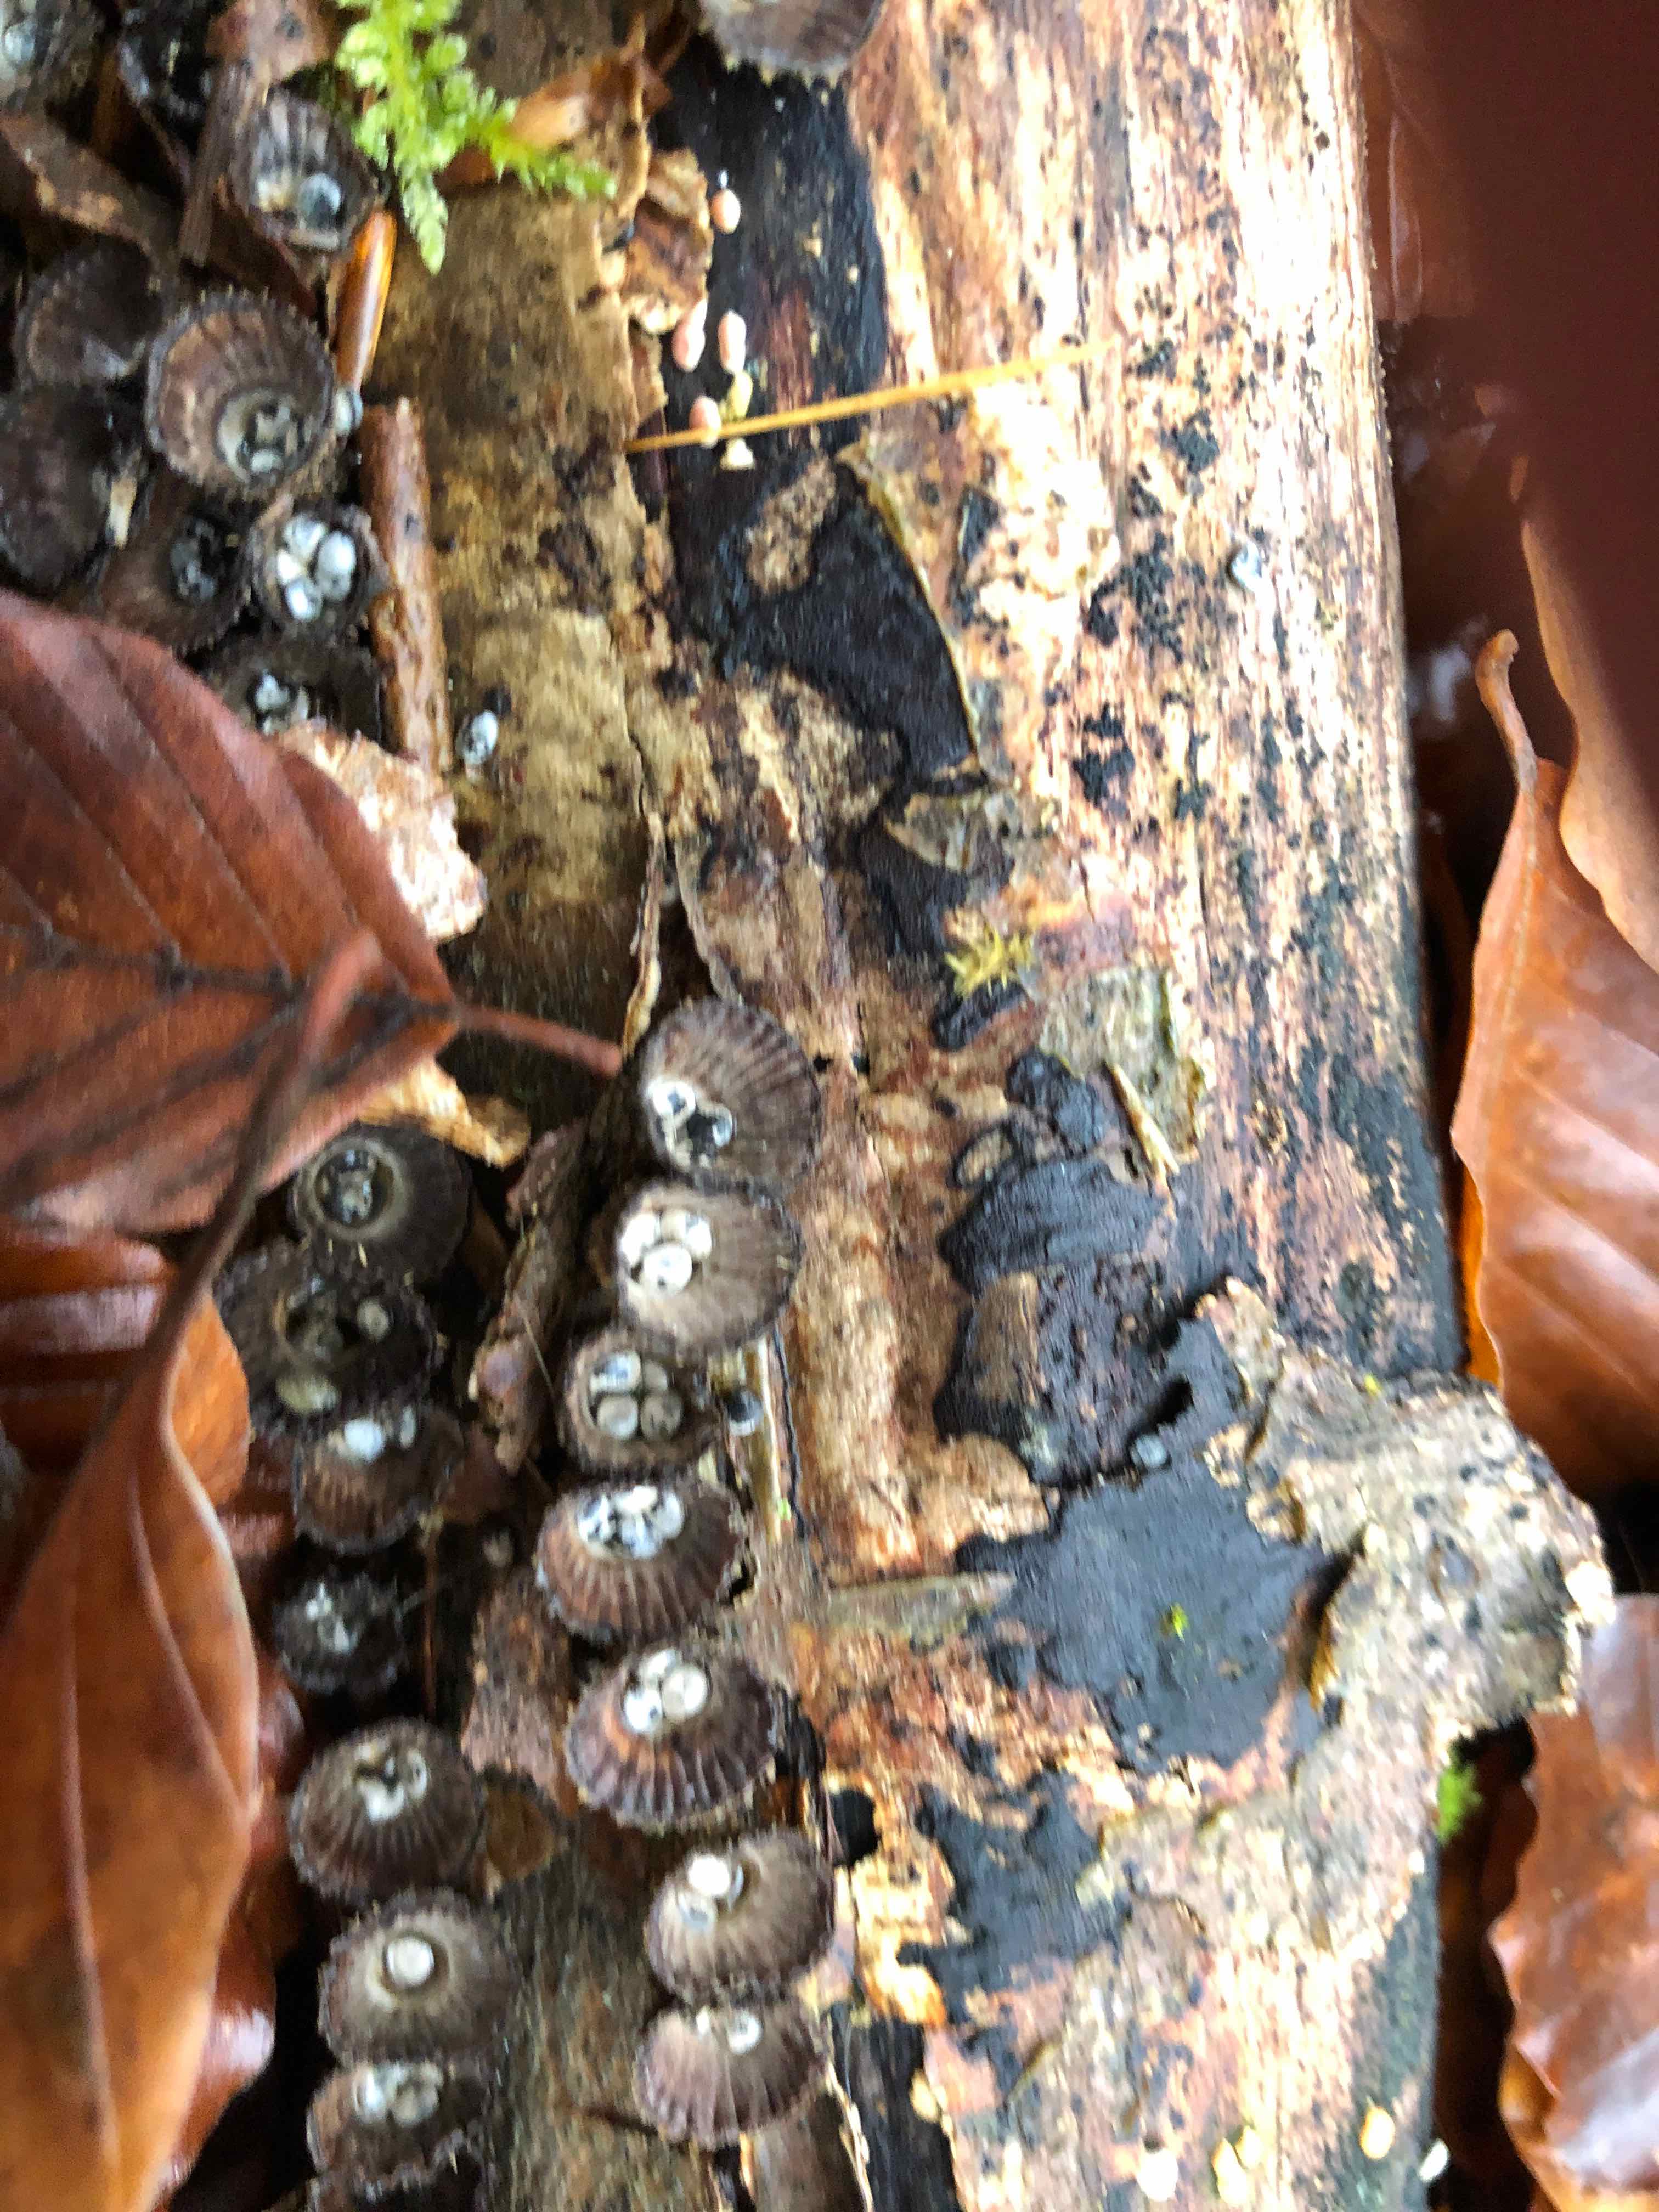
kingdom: Fungi
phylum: Basidiomycota
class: Agaricomycetes
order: Agaricales
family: Agaricaceae
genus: Cyathus
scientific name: Cyathus striatus
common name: stribet redesvamp
